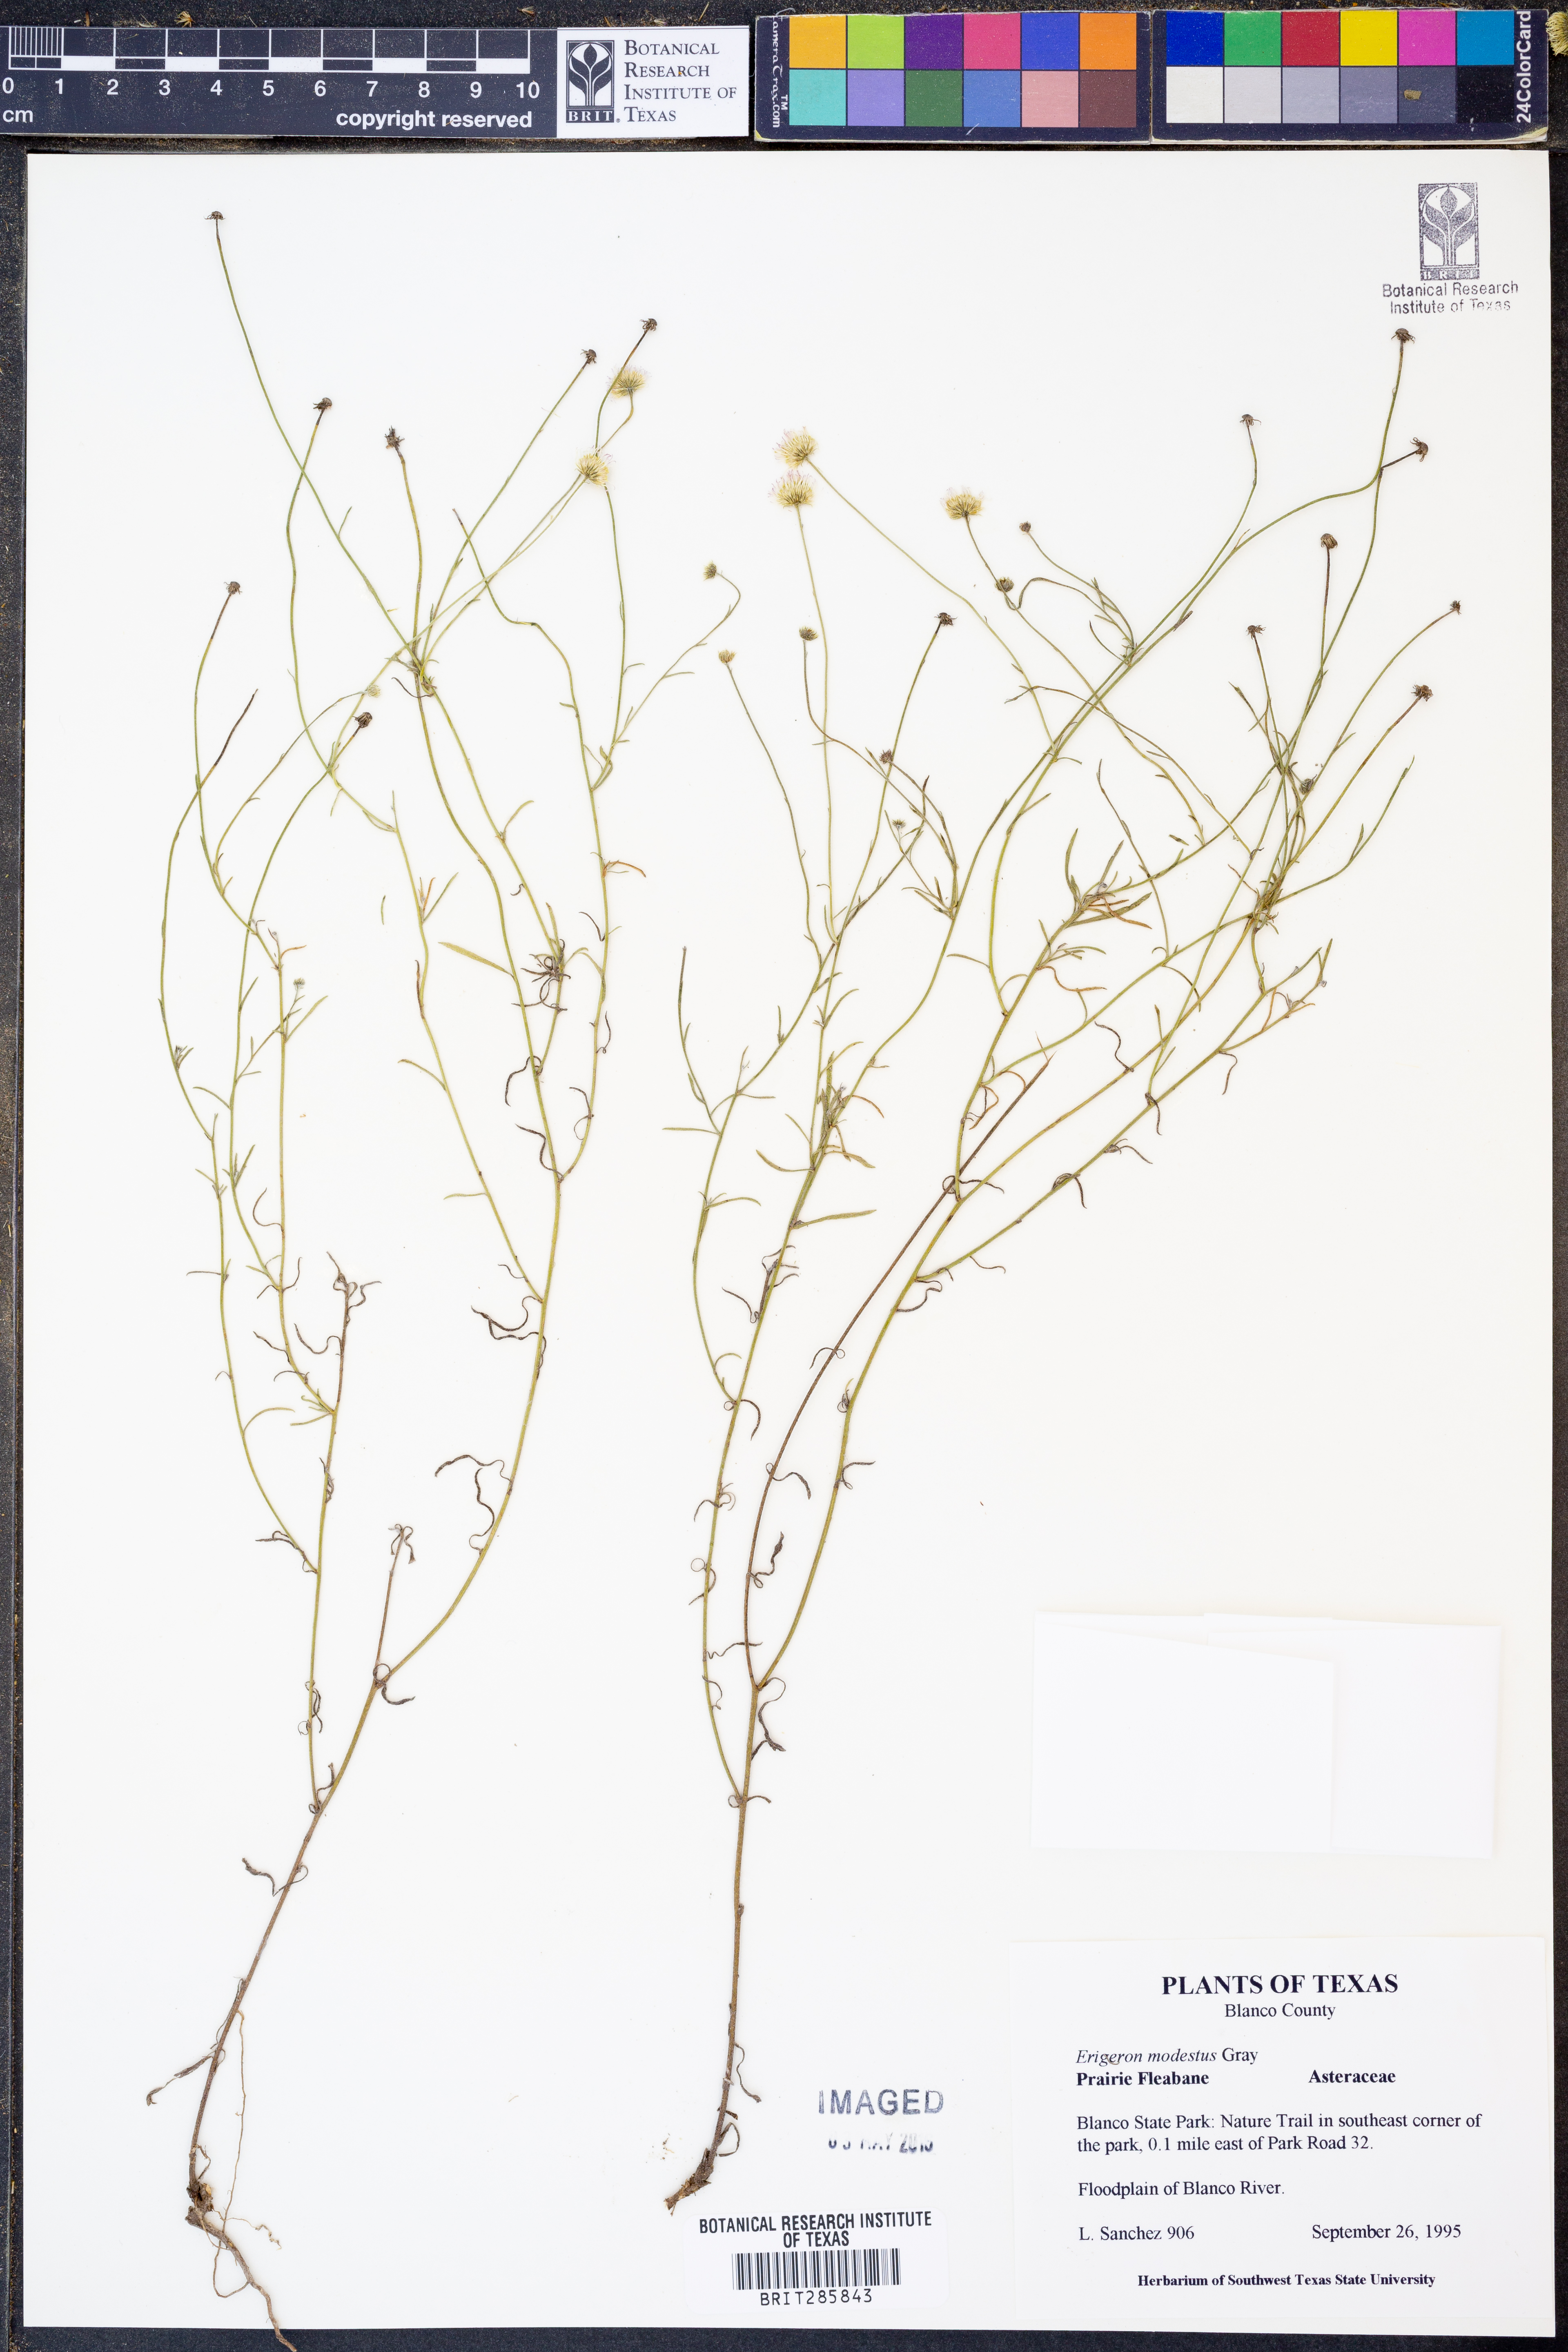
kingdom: Plantae
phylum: Tracheophyta
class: Magnoliopsida
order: Asterales
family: Asteraceae
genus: Erigeron
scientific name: Erigeron modestus
